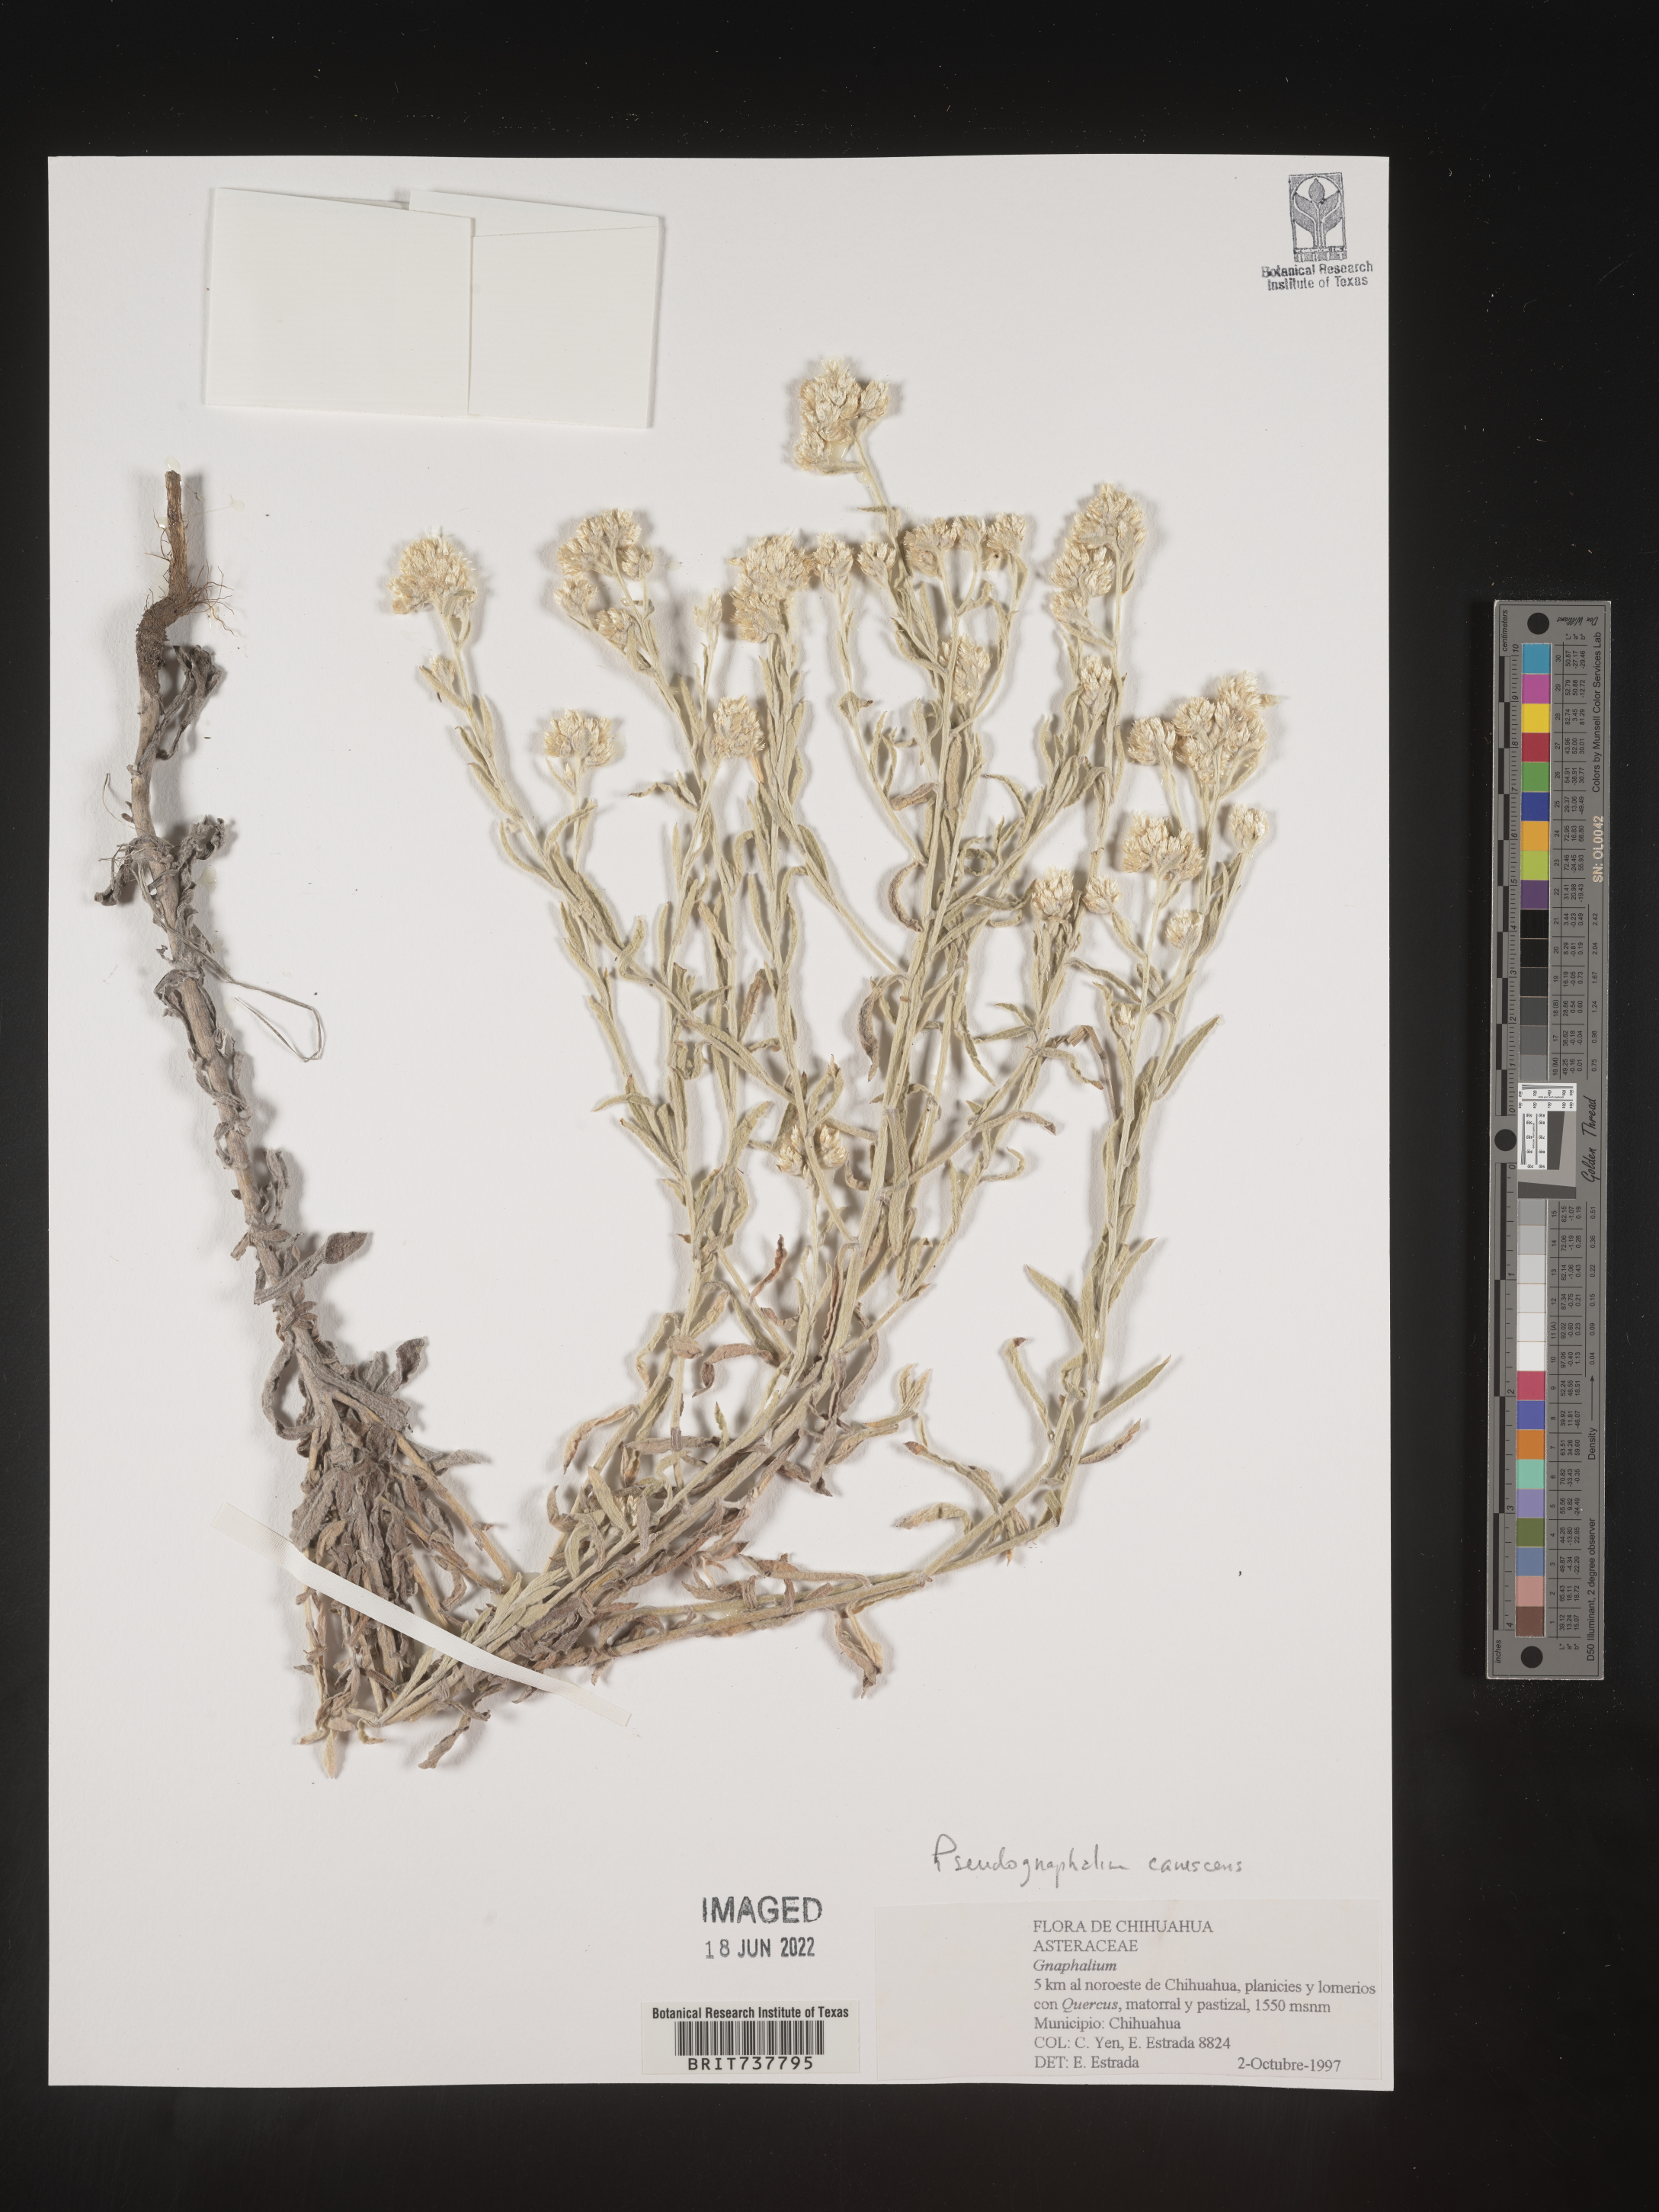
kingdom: Plantae
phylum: Tracheophyta
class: Magnoliopsida
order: Asterales
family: Asteraceae
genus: Pseudognaphalium
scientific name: Pseudognaphalium canescens
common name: Wright's rabbit-tobacco
